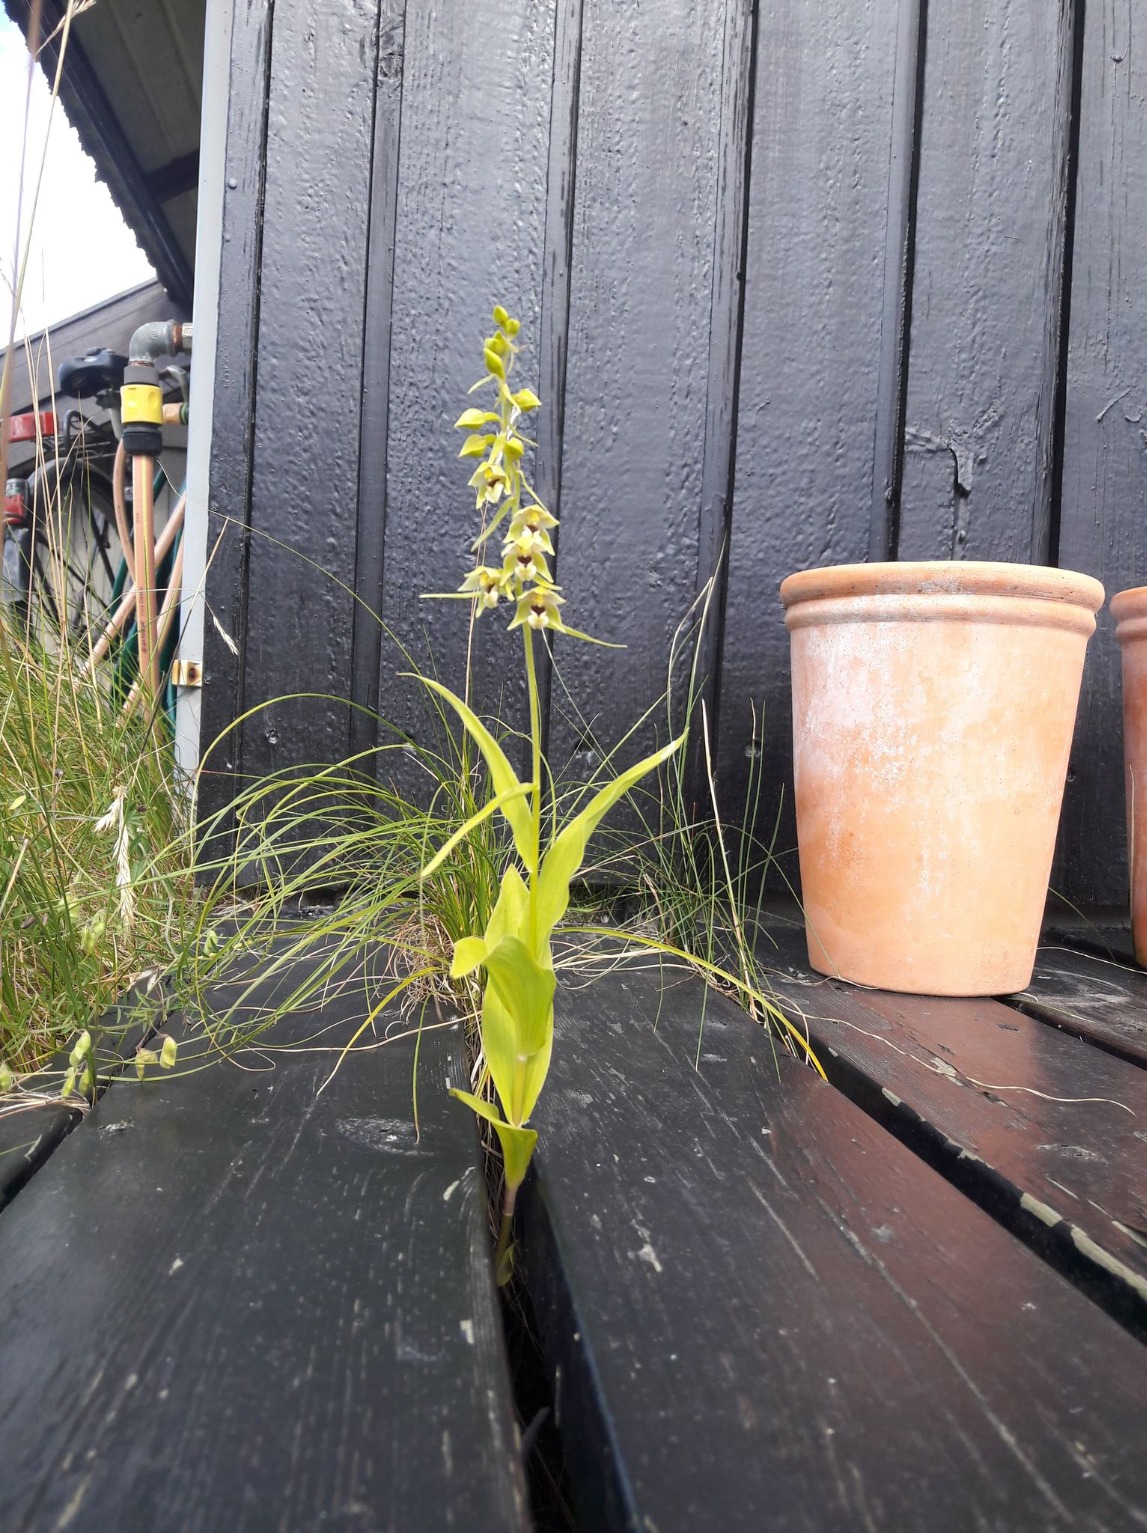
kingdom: Plantae
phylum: Tracheophyta
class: Liliopsida
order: Asparagales
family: Orchidaceae
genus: Epipactis
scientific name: Epipactis helleborine
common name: Skov-hullæbe
